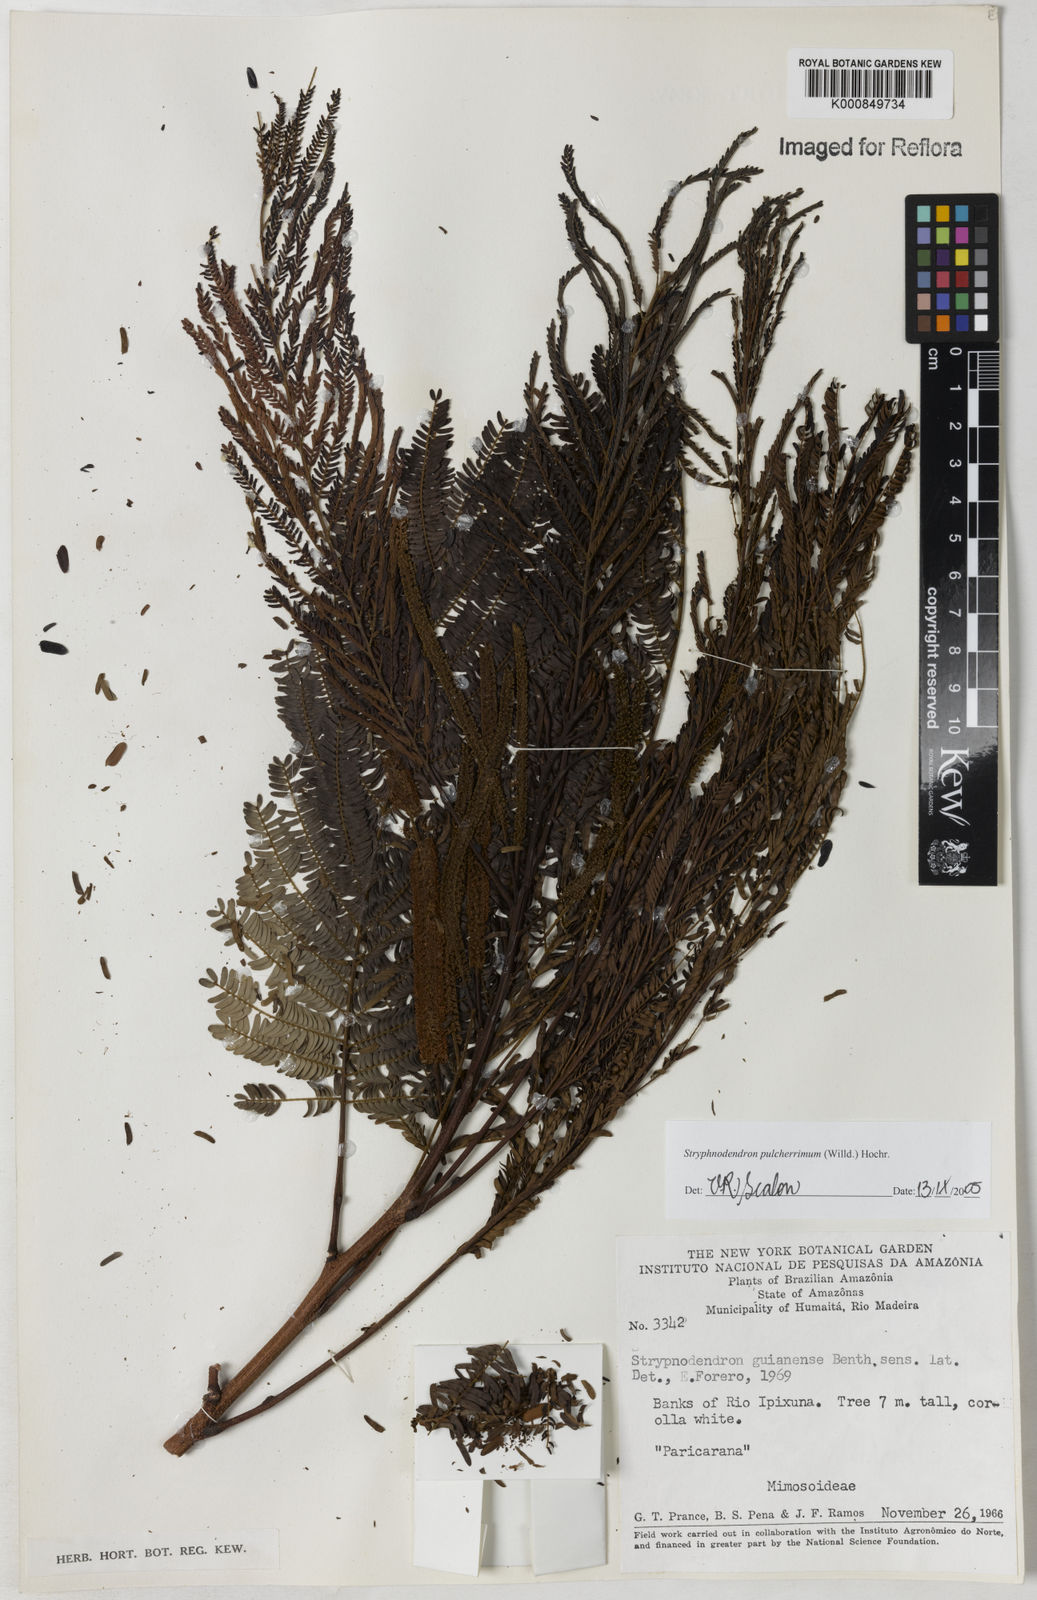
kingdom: Plantae
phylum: Tracheophyta
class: Magnoliopsida
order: Fabales
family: Fabaceae
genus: Stryphnodendron
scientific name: Stryphnodendron pulcherrimum
